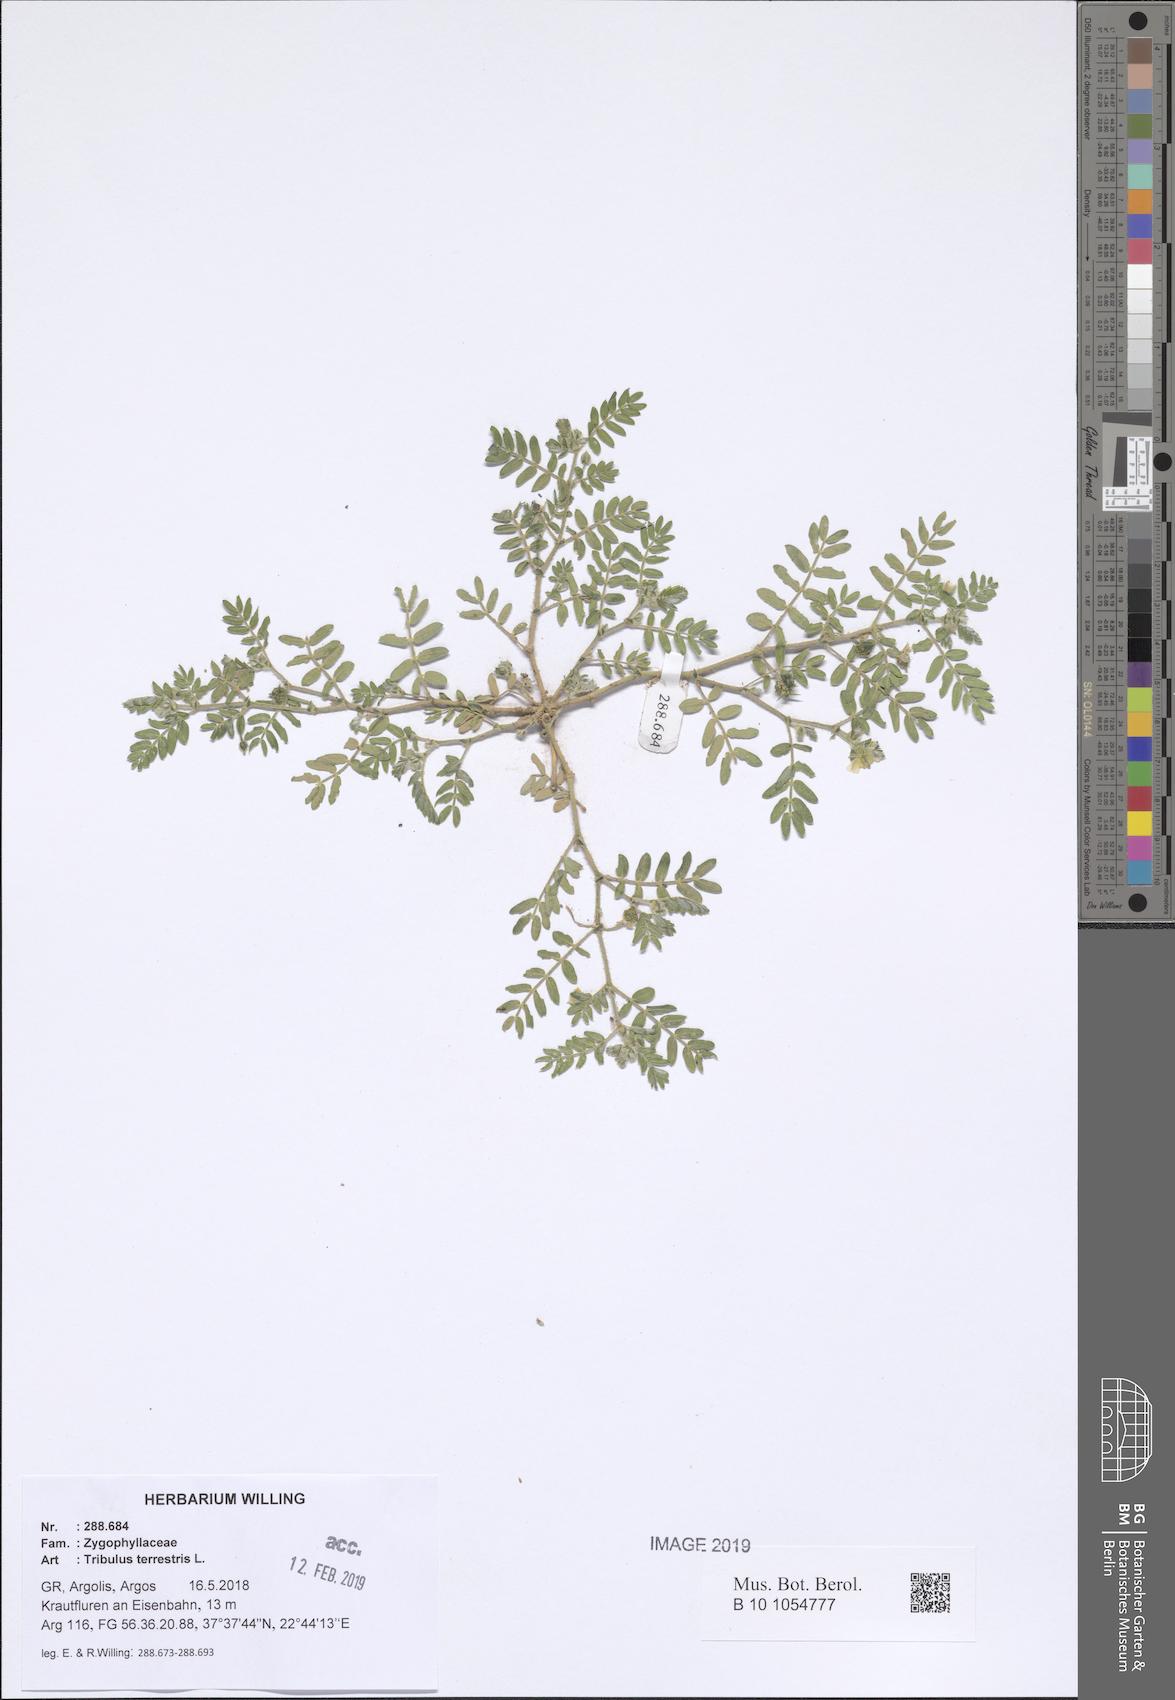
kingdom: Plantae
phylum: Tracheophyta
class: Magnoliopsida
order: Zygophyllales
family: Zygophyllaceae
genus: Tribulus
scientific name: Tribulus terrestris
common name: Puncturevine
